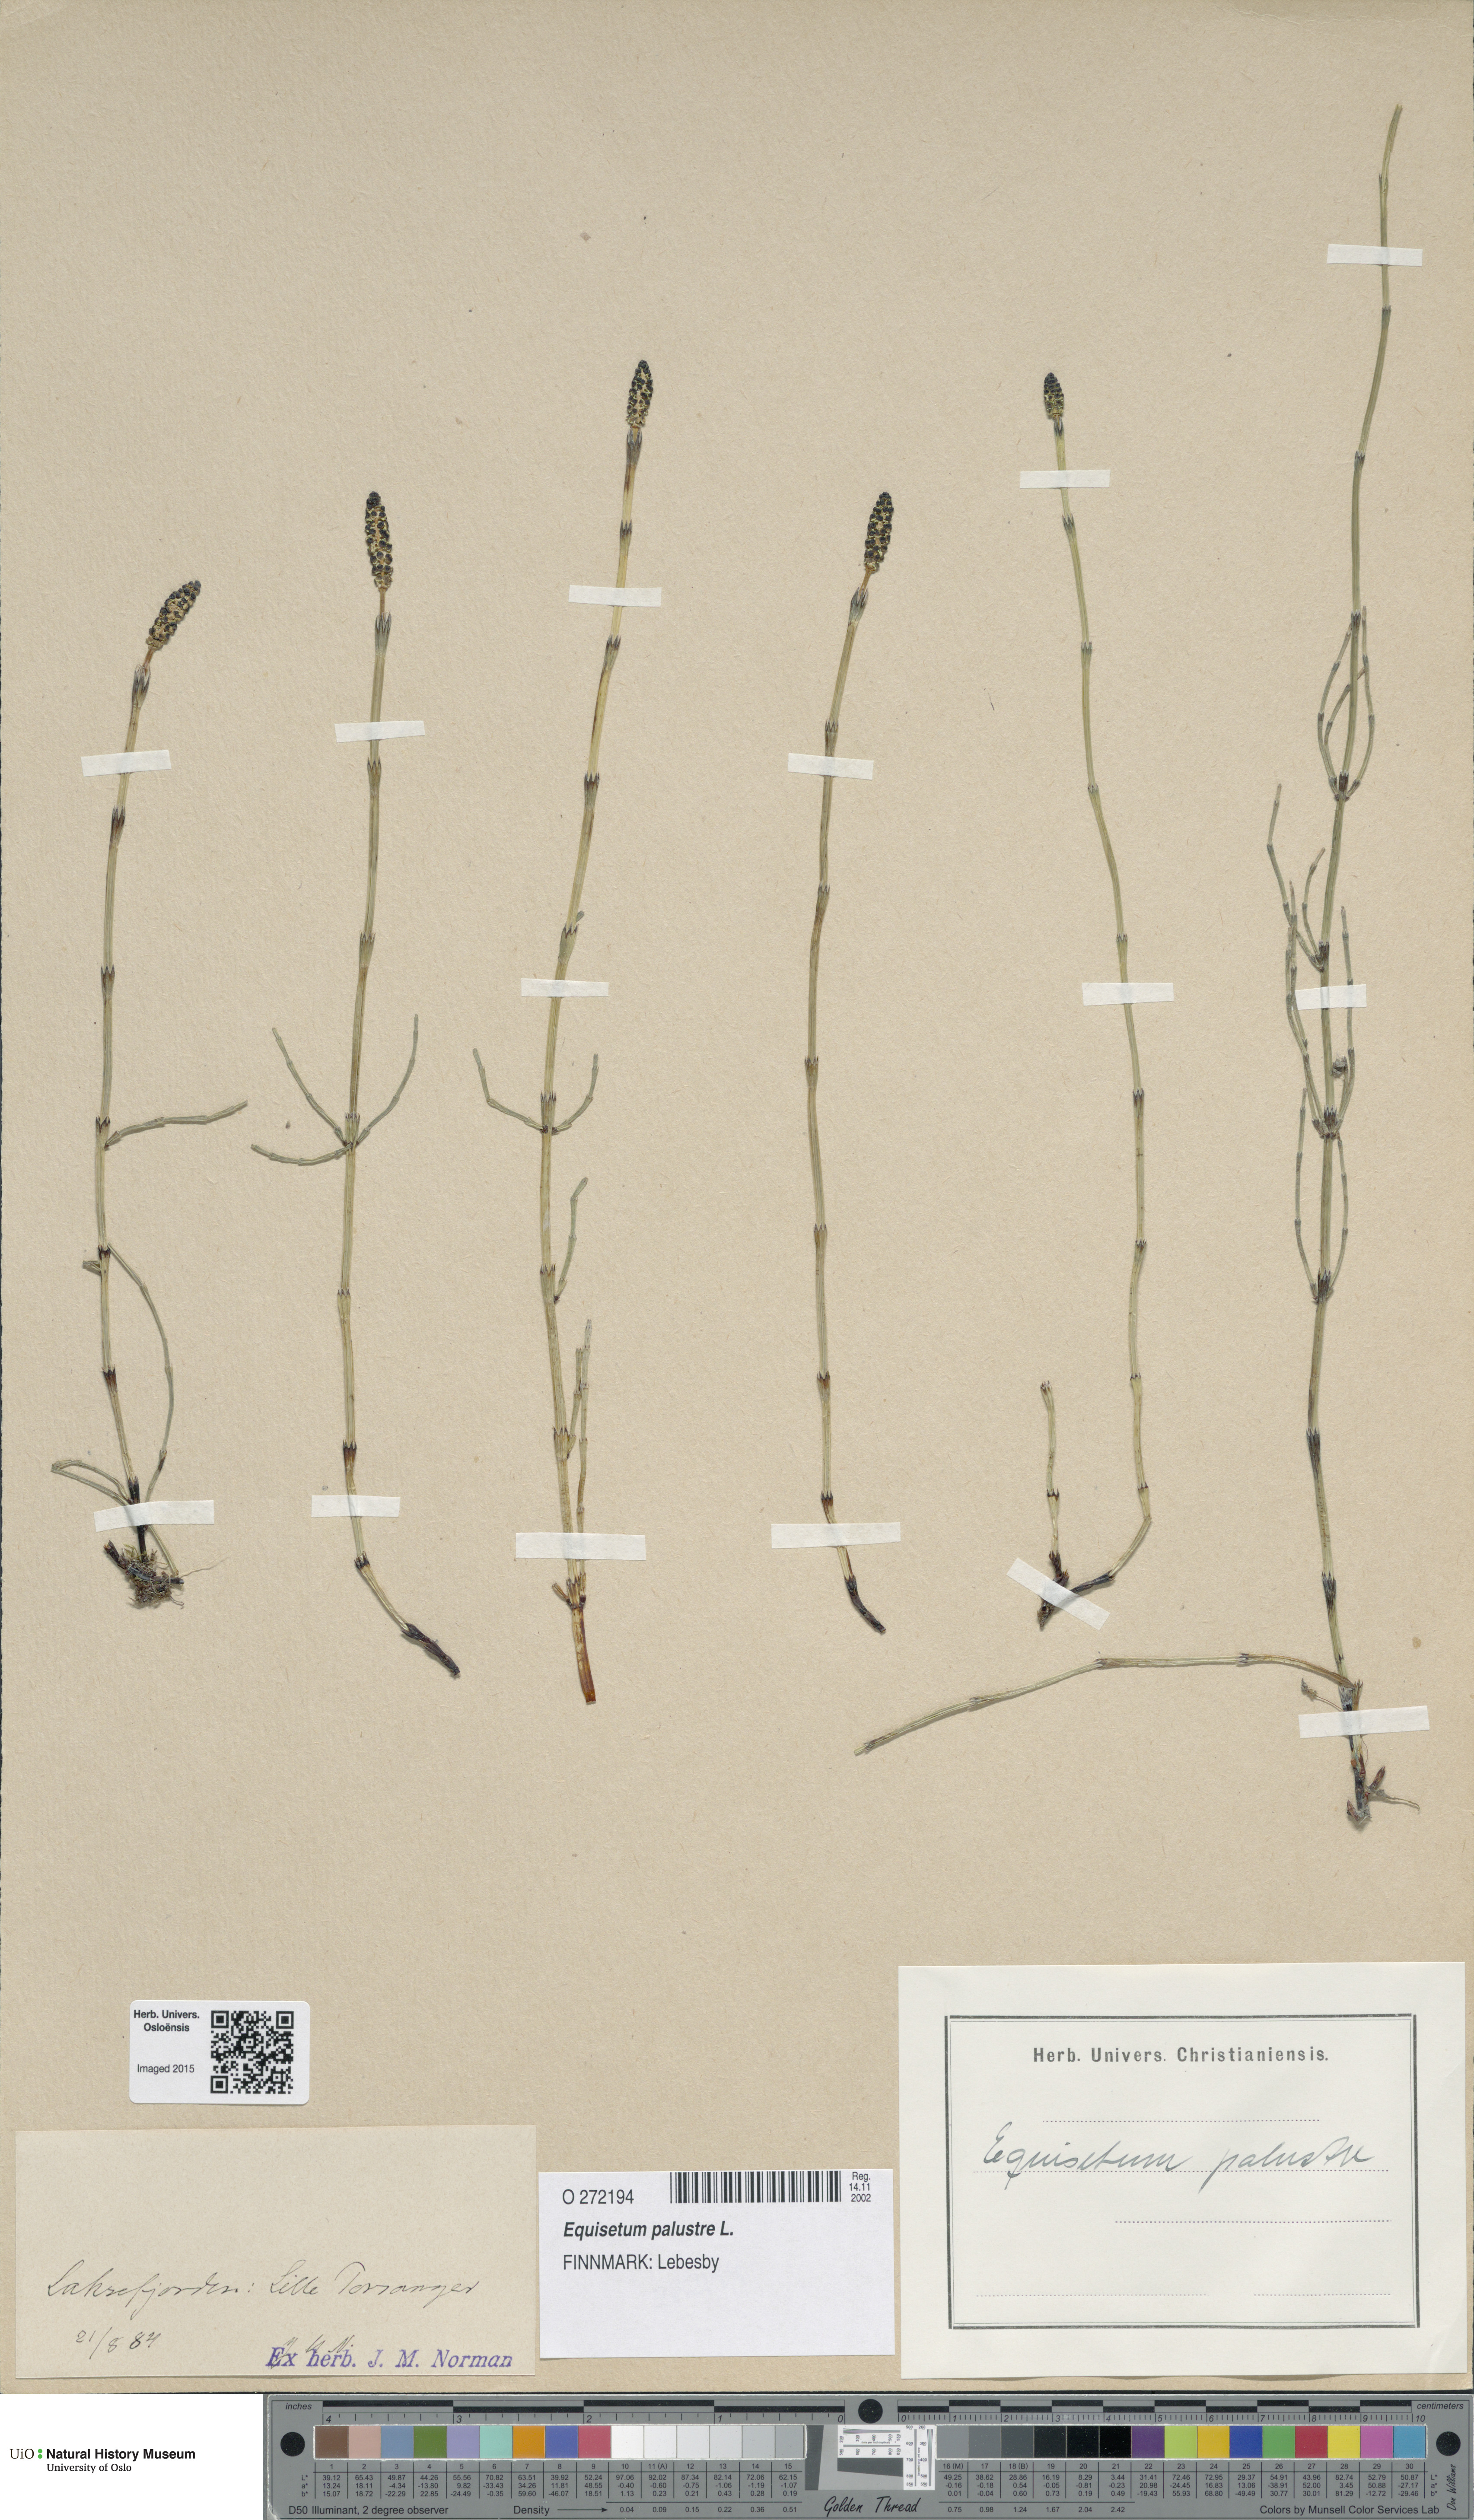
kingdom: Plantae
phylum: Tracheophyta
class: Polypodiopsida
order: Equisetales
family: Equisetaceae
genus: Equisetum
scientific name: Equisetum palustre
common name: Marsh horsetail
